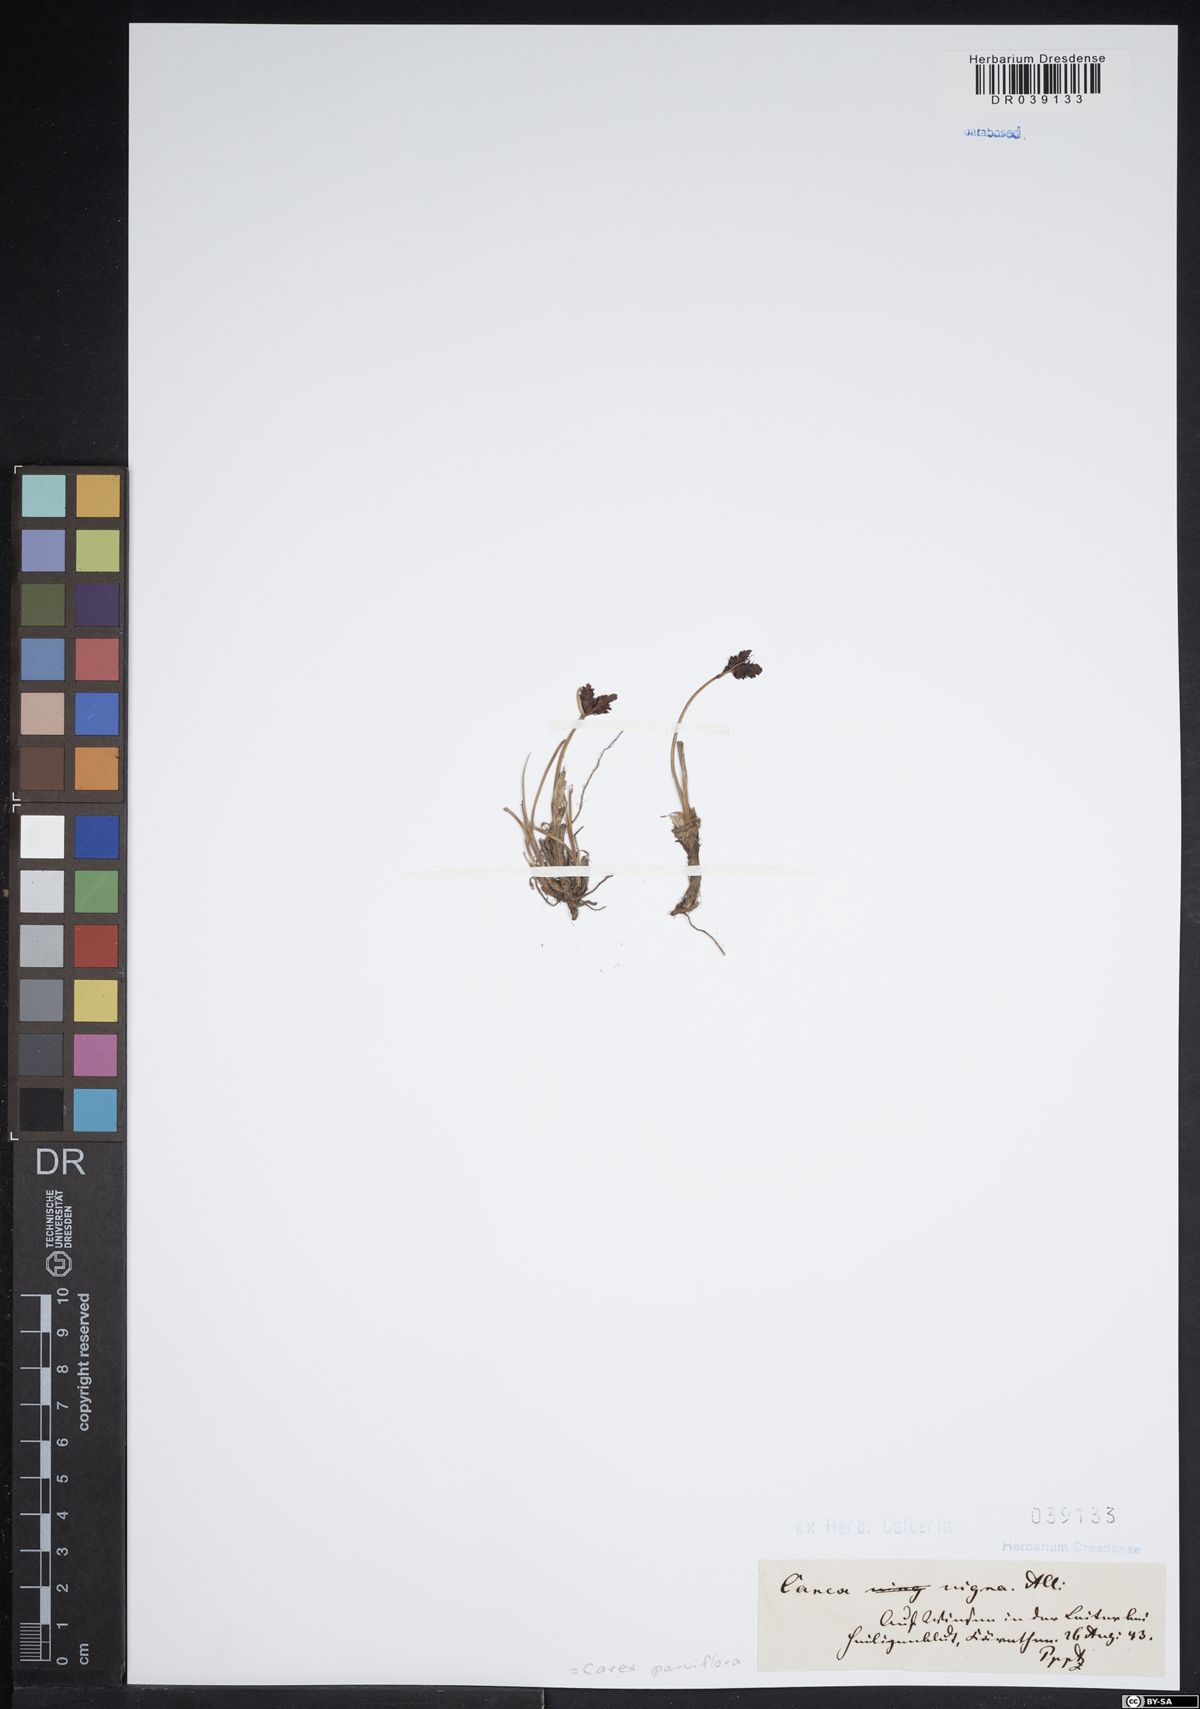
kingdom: Plantae
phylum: Tracheophyta
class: Liliopsida
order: Poales
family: Cyperaceae
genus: Carex
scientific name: Carex parviflora
